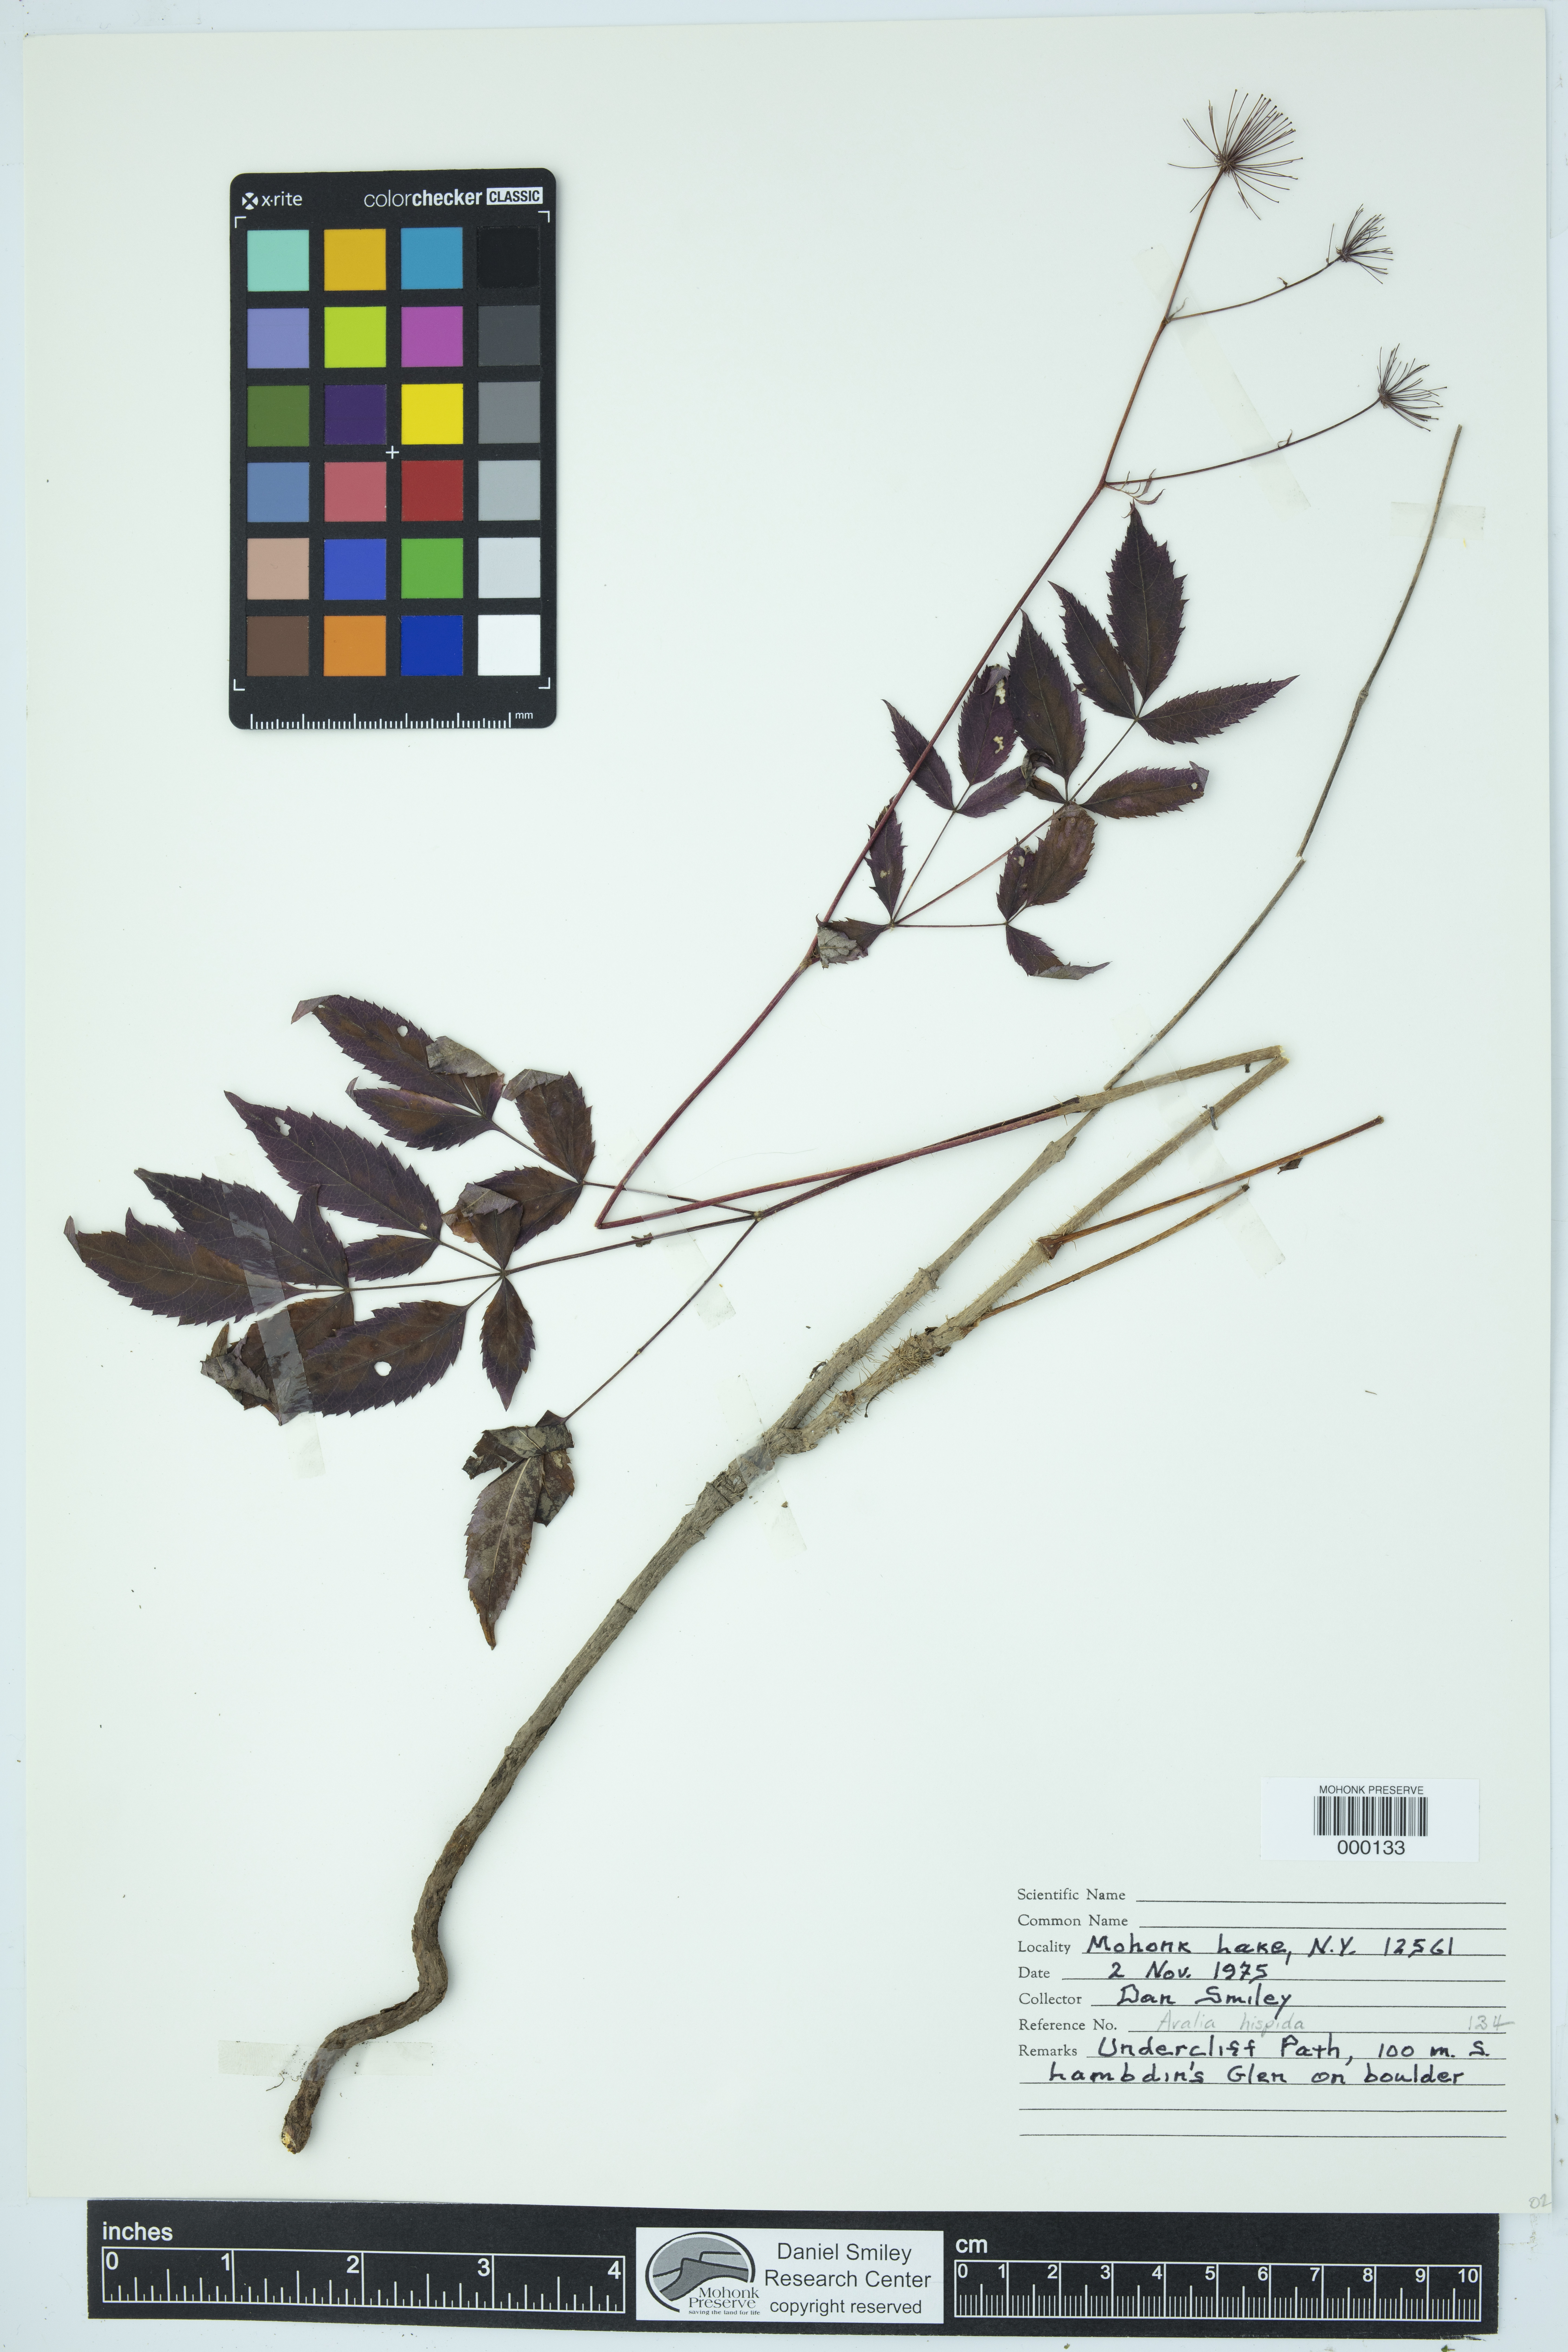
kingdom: Plantae
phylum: Tracheophyta
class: Magnoliopsida
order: Apiales
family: Araliaceae
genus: Aralia
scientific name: Aralia hispida
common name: Bristly sarsaparilla
